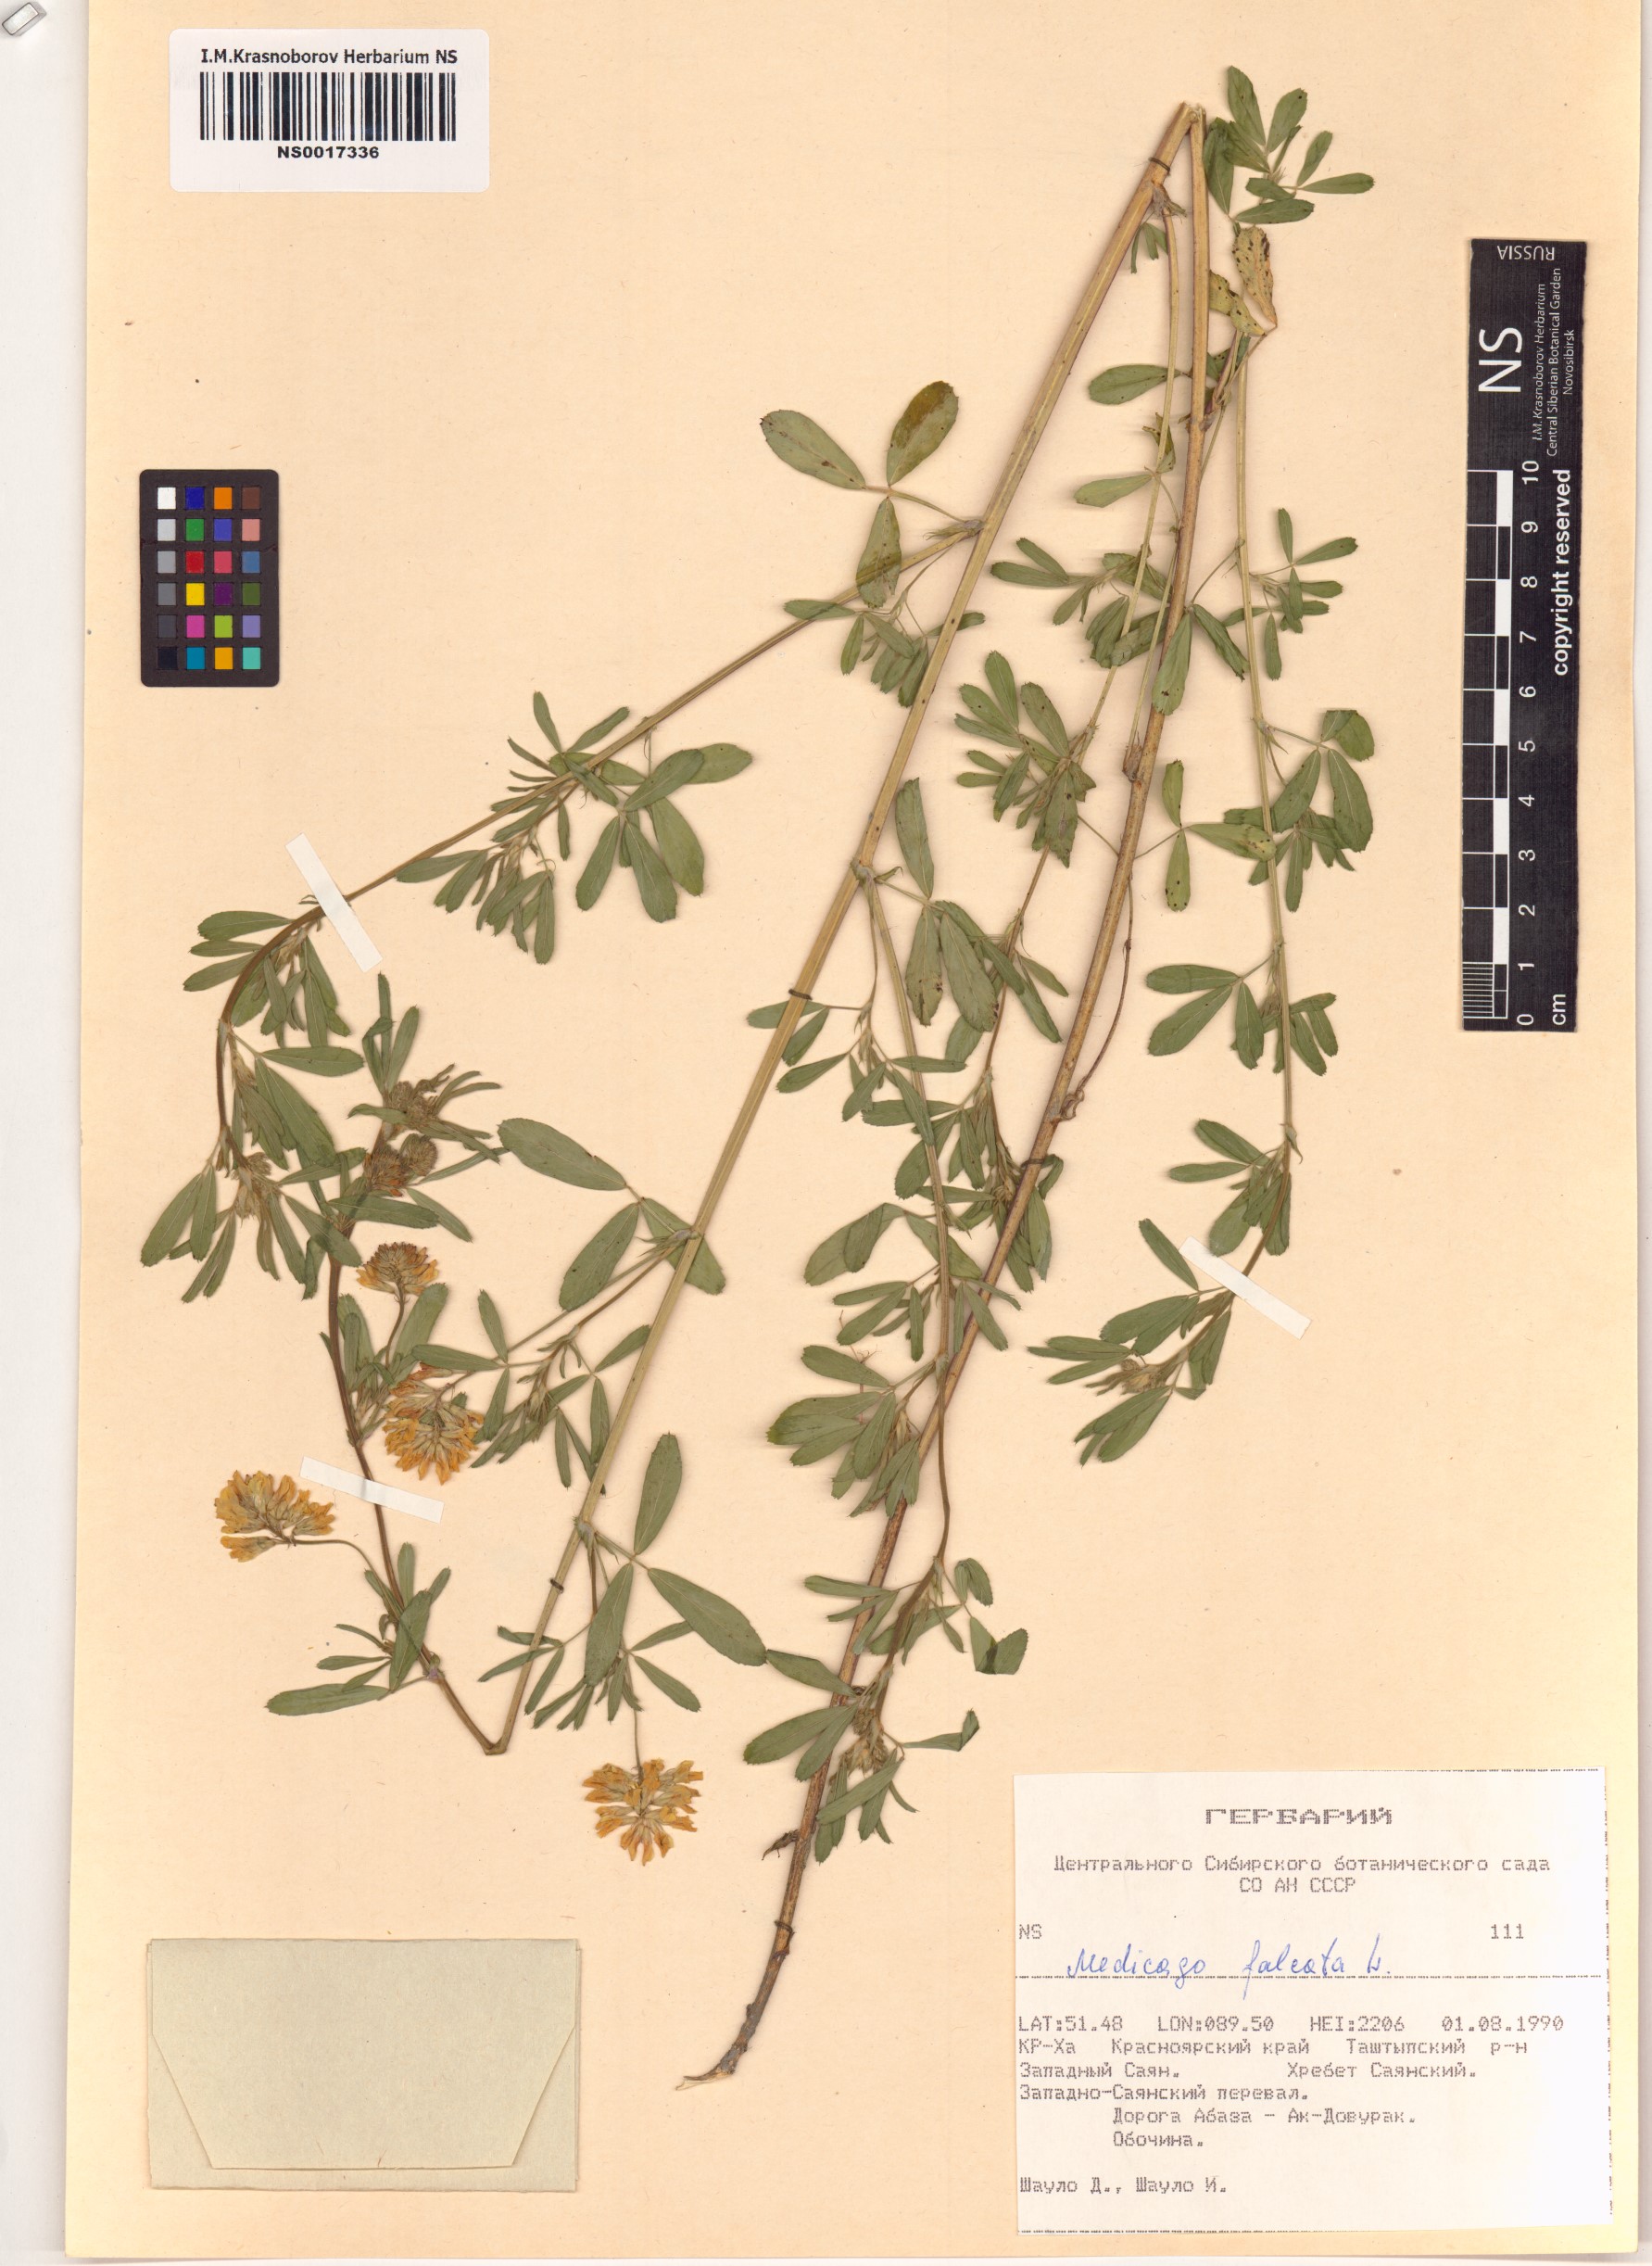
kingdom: Plantae
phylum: Tracheophyta
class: Magnoliopsida
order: Fabales
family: Fabaceae
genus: Medicago
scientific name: Medicago falcata
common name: Sickle medick
